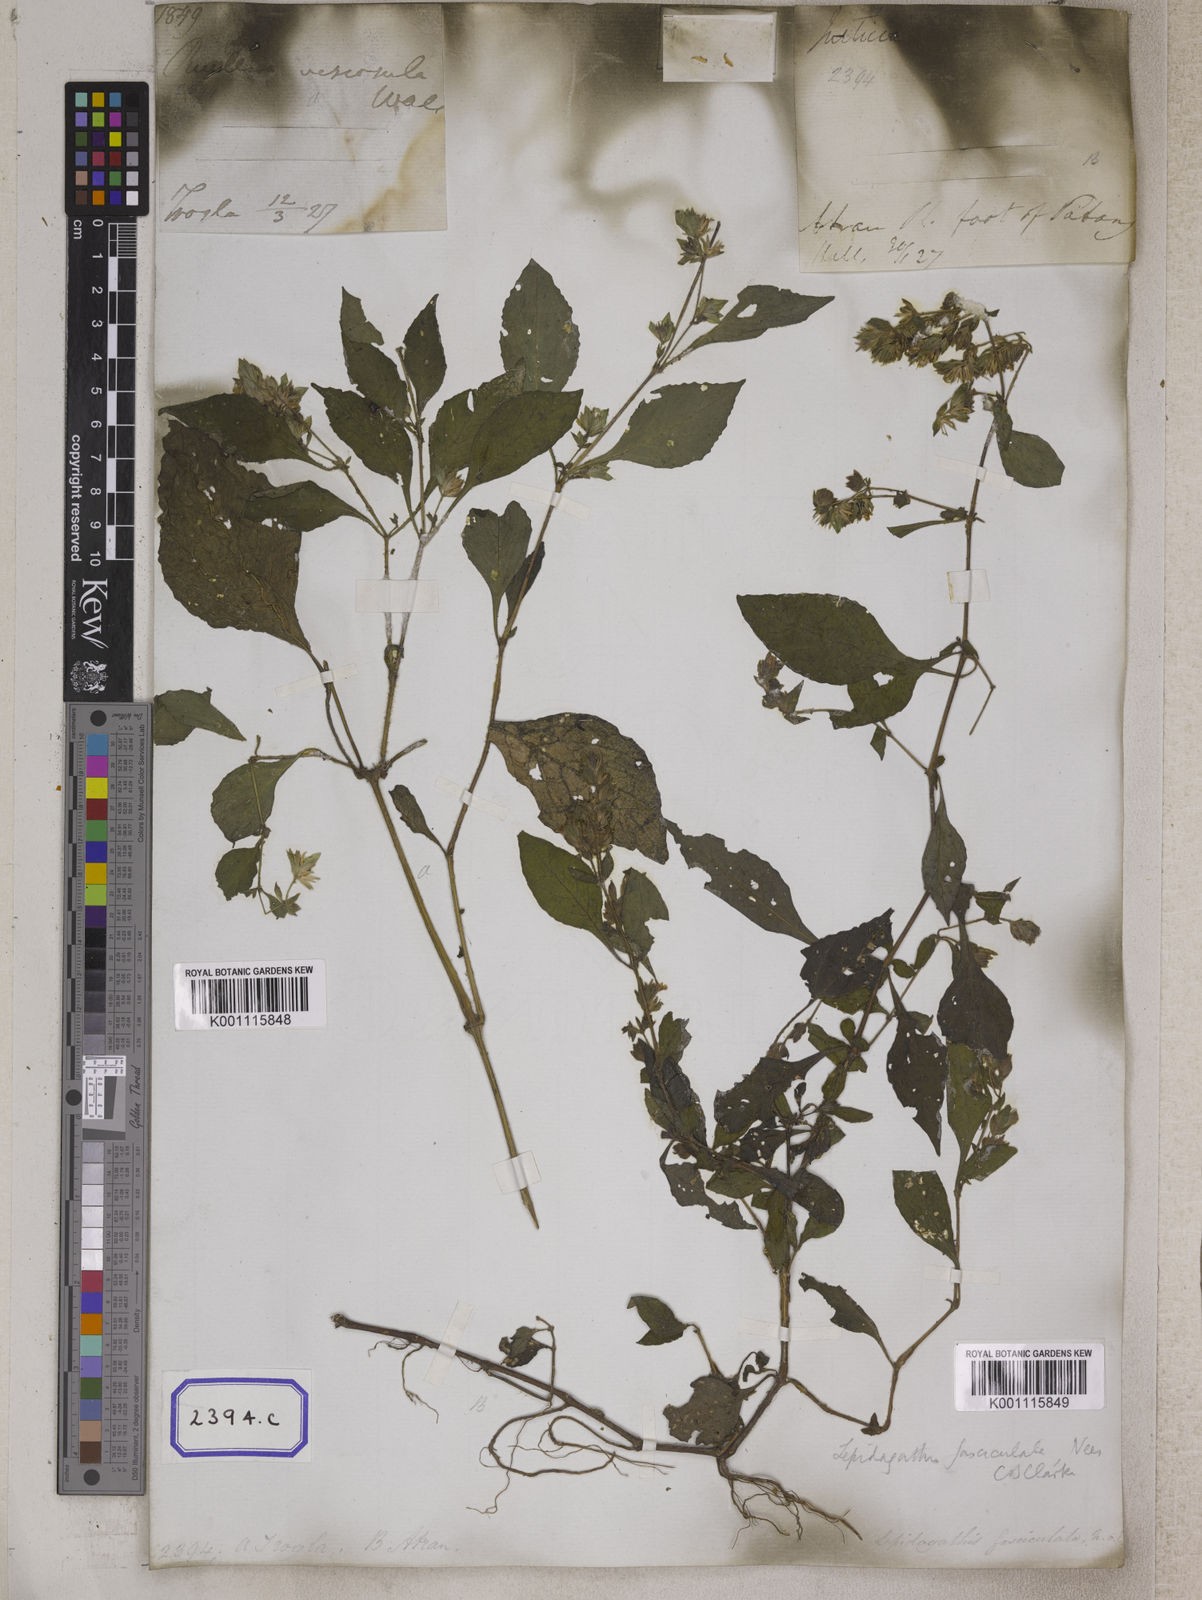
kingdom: Plantae
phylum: Tracheophyta
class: Magnoliopsida
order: Lamiales
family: Acanthaceae
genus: Strobilanthes
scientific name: Strobilanthes pavala
